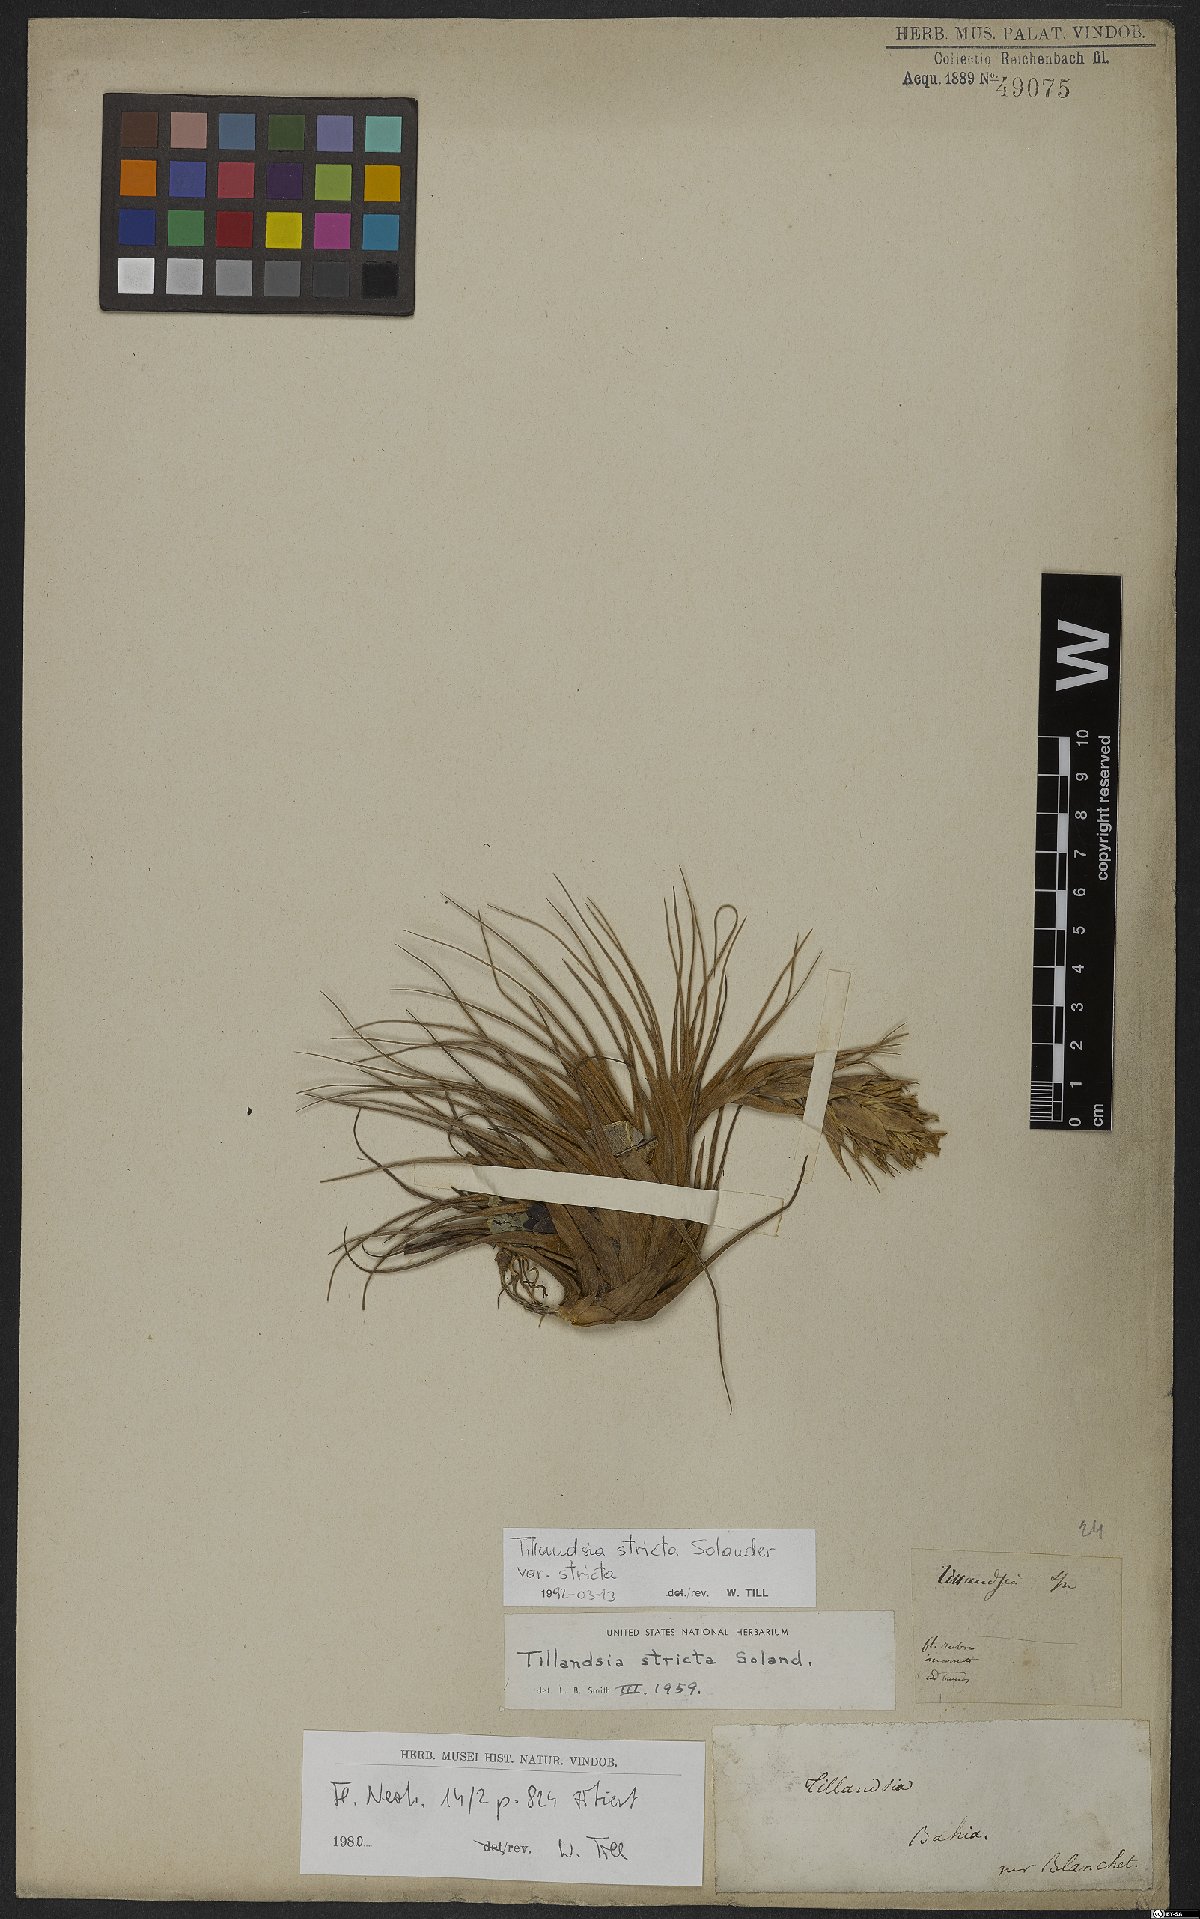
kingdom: Plantae
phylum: Tracheophyta
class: Liliopsida
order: Poales
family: Bromeliaceae
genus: Tillandsia
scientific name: Tillandsia stricta
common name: Airplant
